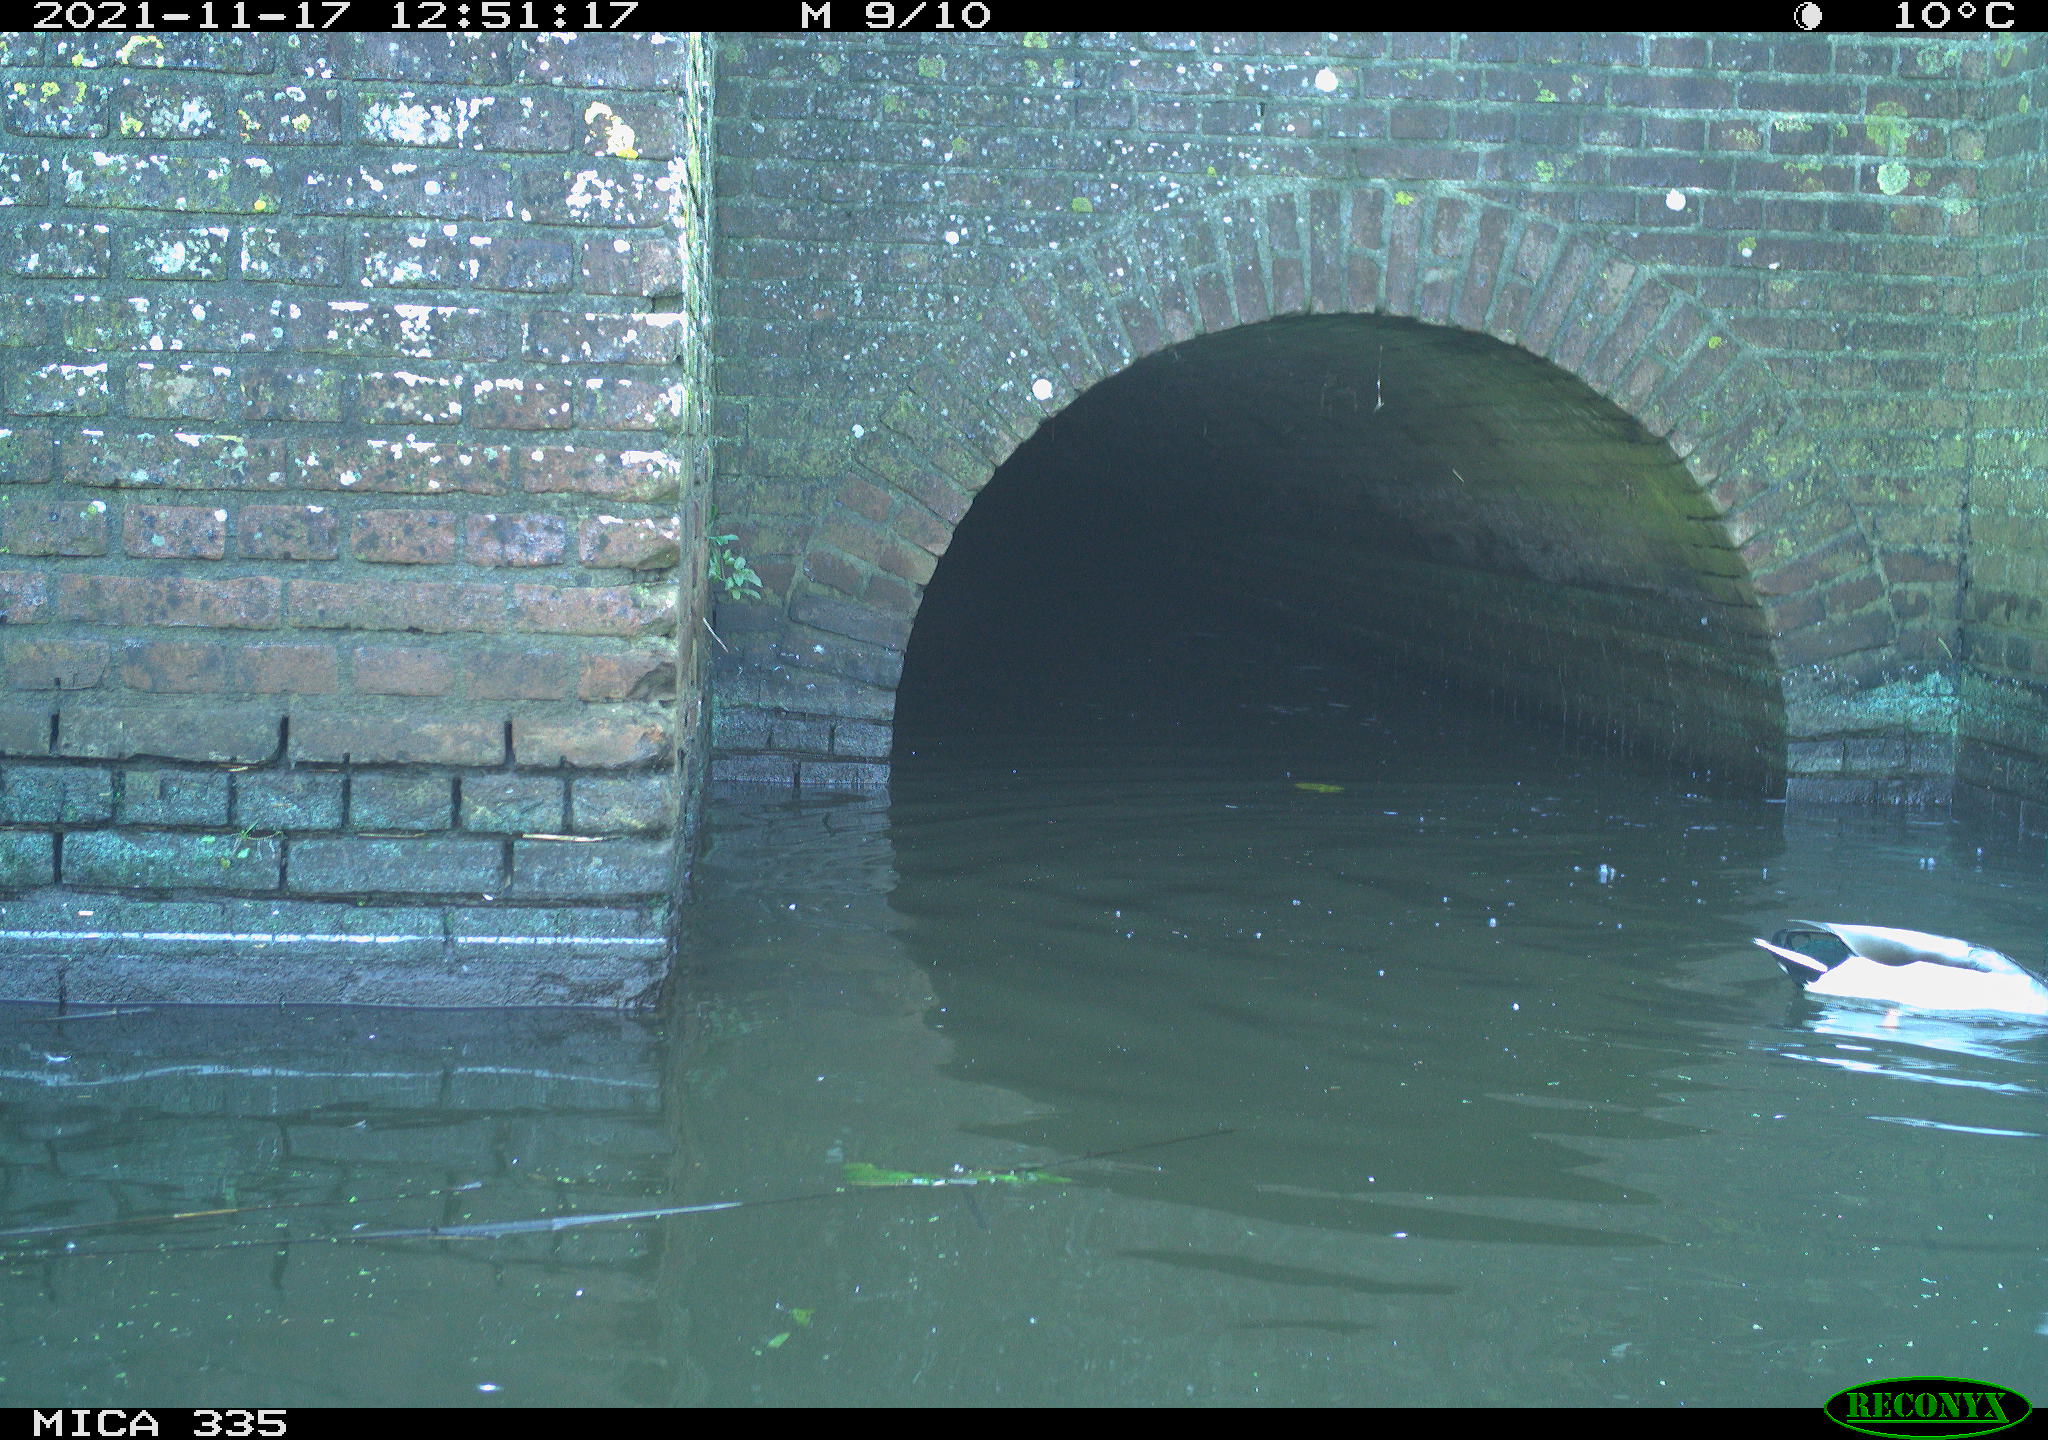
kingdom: Animalia
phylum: Chordata
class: Aves
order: Anseriformes
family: Anatidae
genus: Anas
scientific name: Anas platyrhynchos
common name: Mallard
